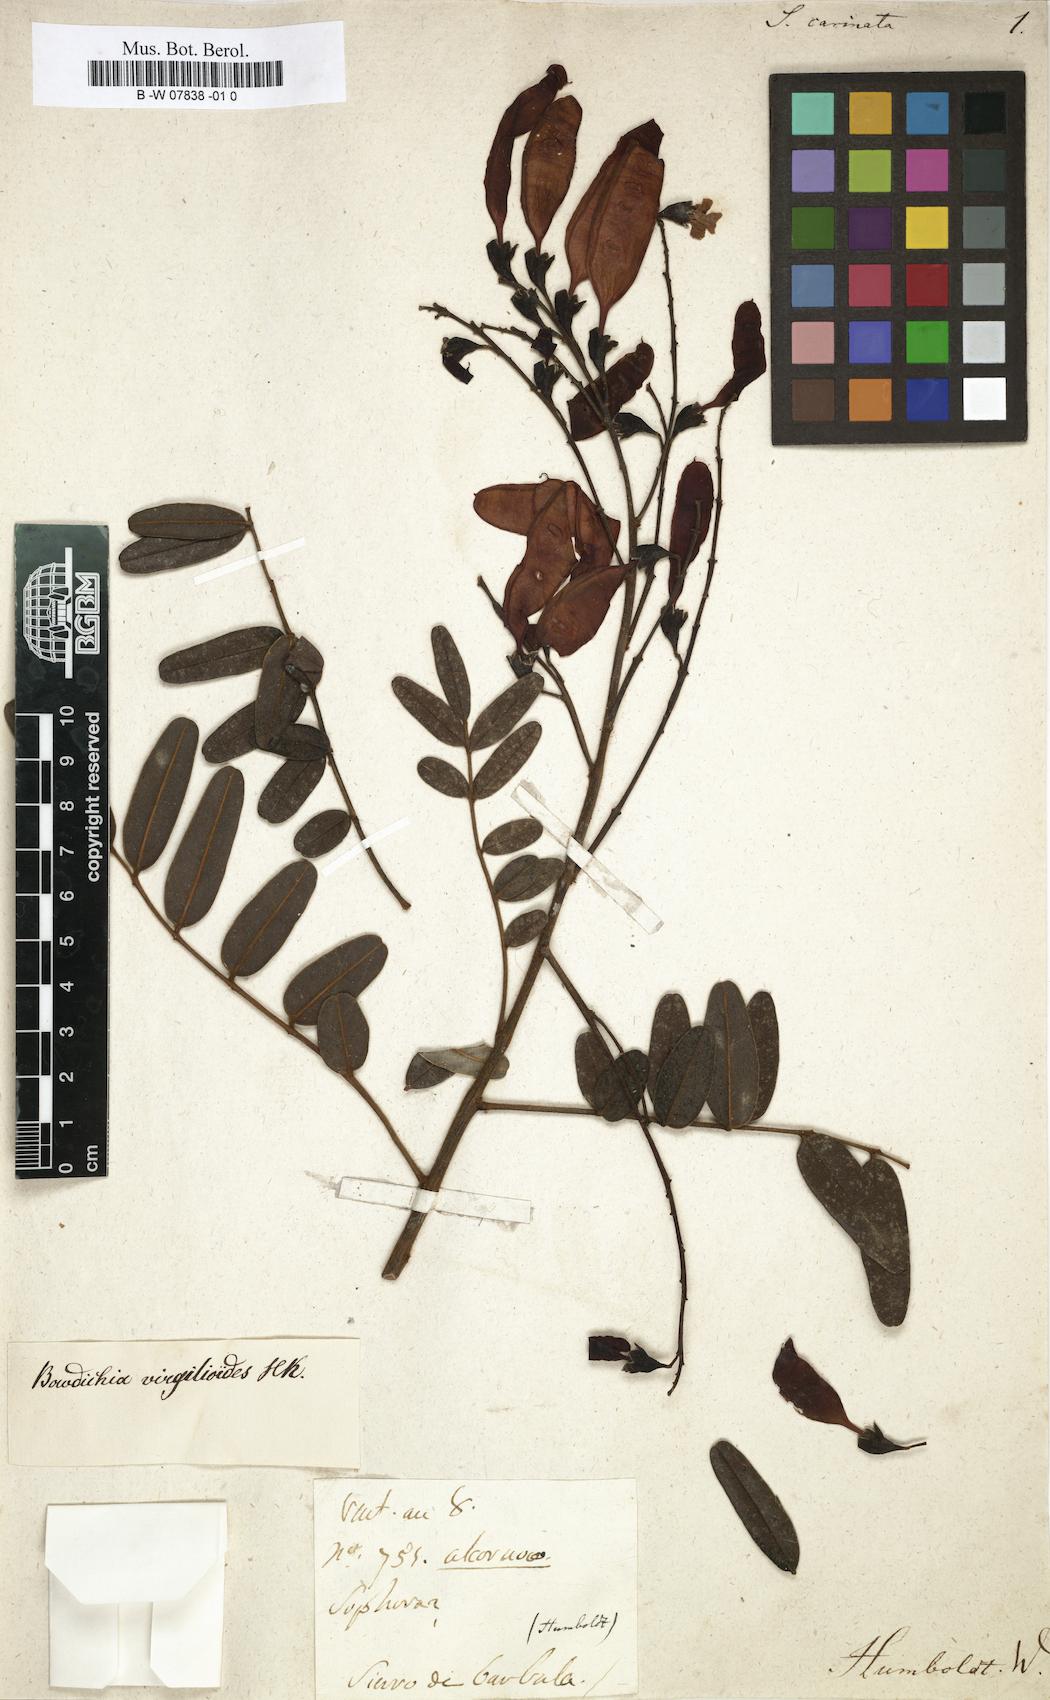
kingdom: Plantae
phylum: Tracheophyta
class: Magnoliopsida
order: Fabales
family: Fabaceae
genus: Sophora
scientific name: Sophora
